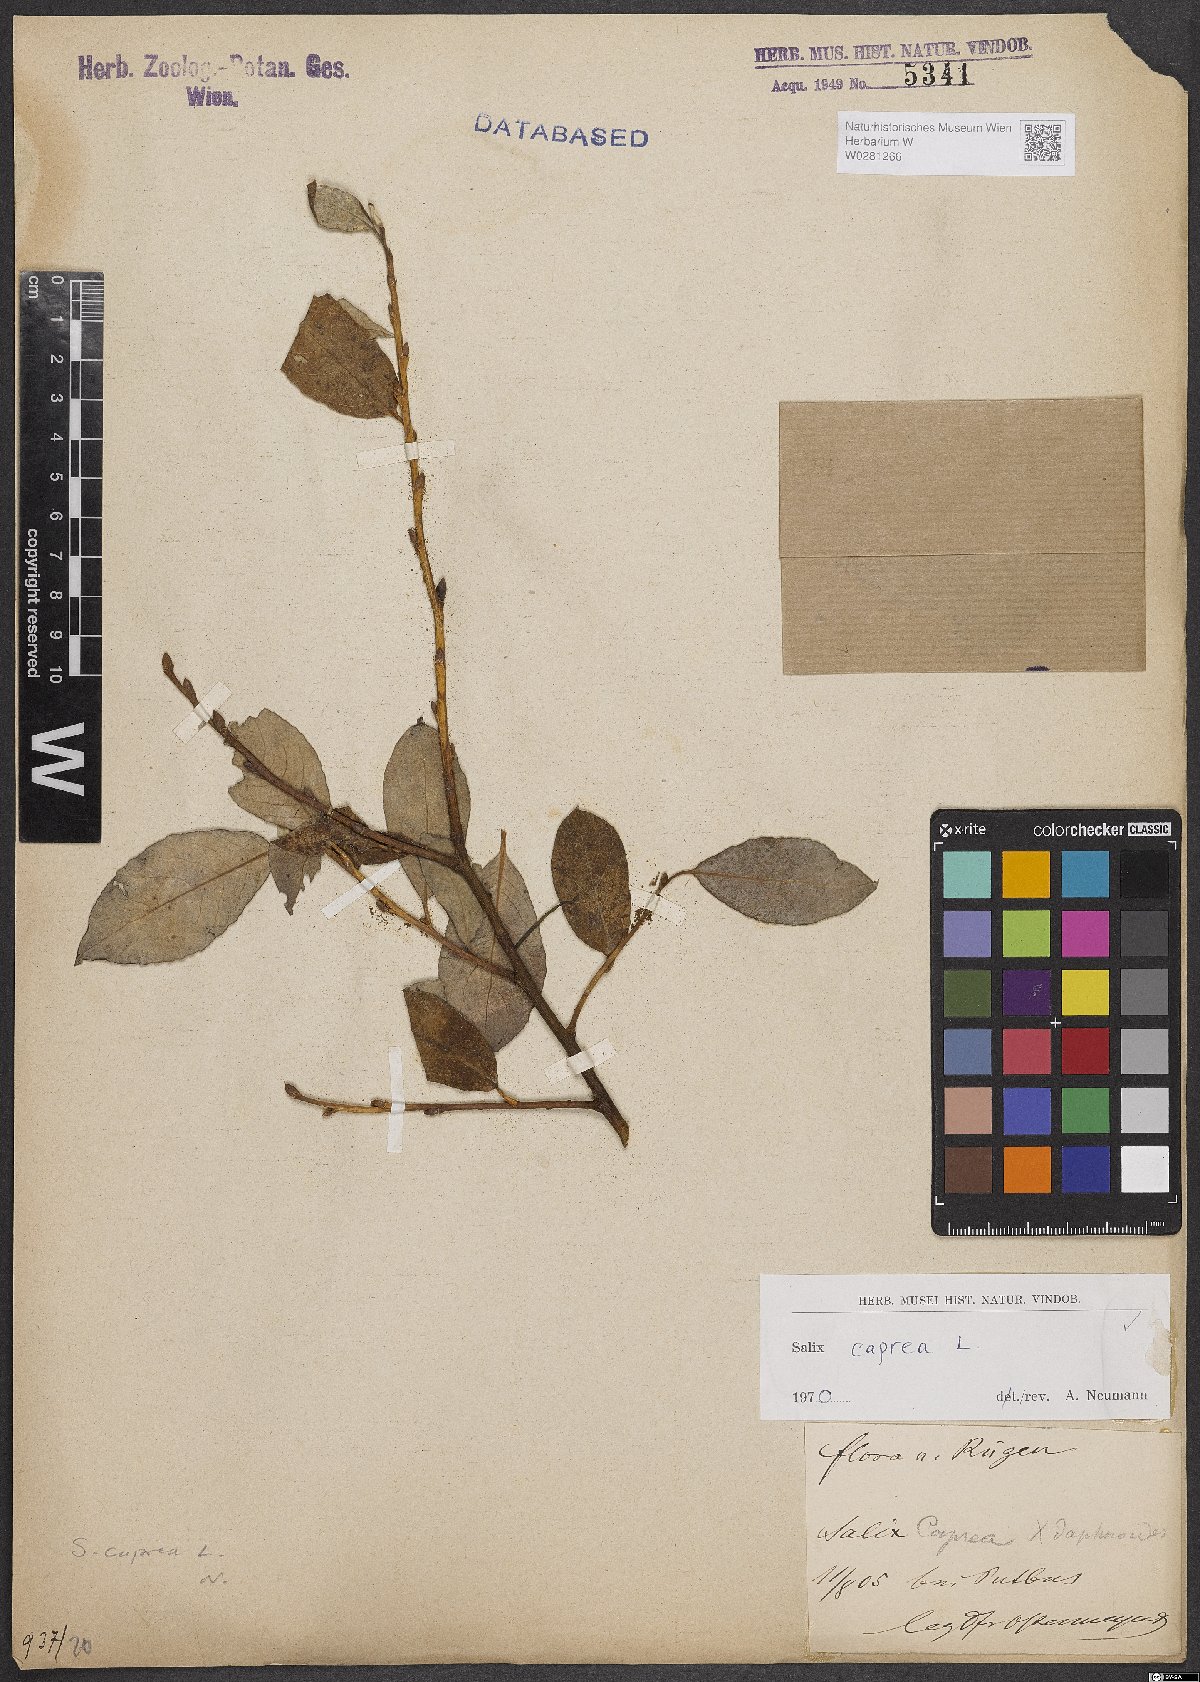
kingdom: Plantae
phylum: Tracheophyta
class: Magnoliopsida
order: Malpighiales
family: Salicaceae
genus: Salix
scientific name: Salix caprea
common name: Goat willow
